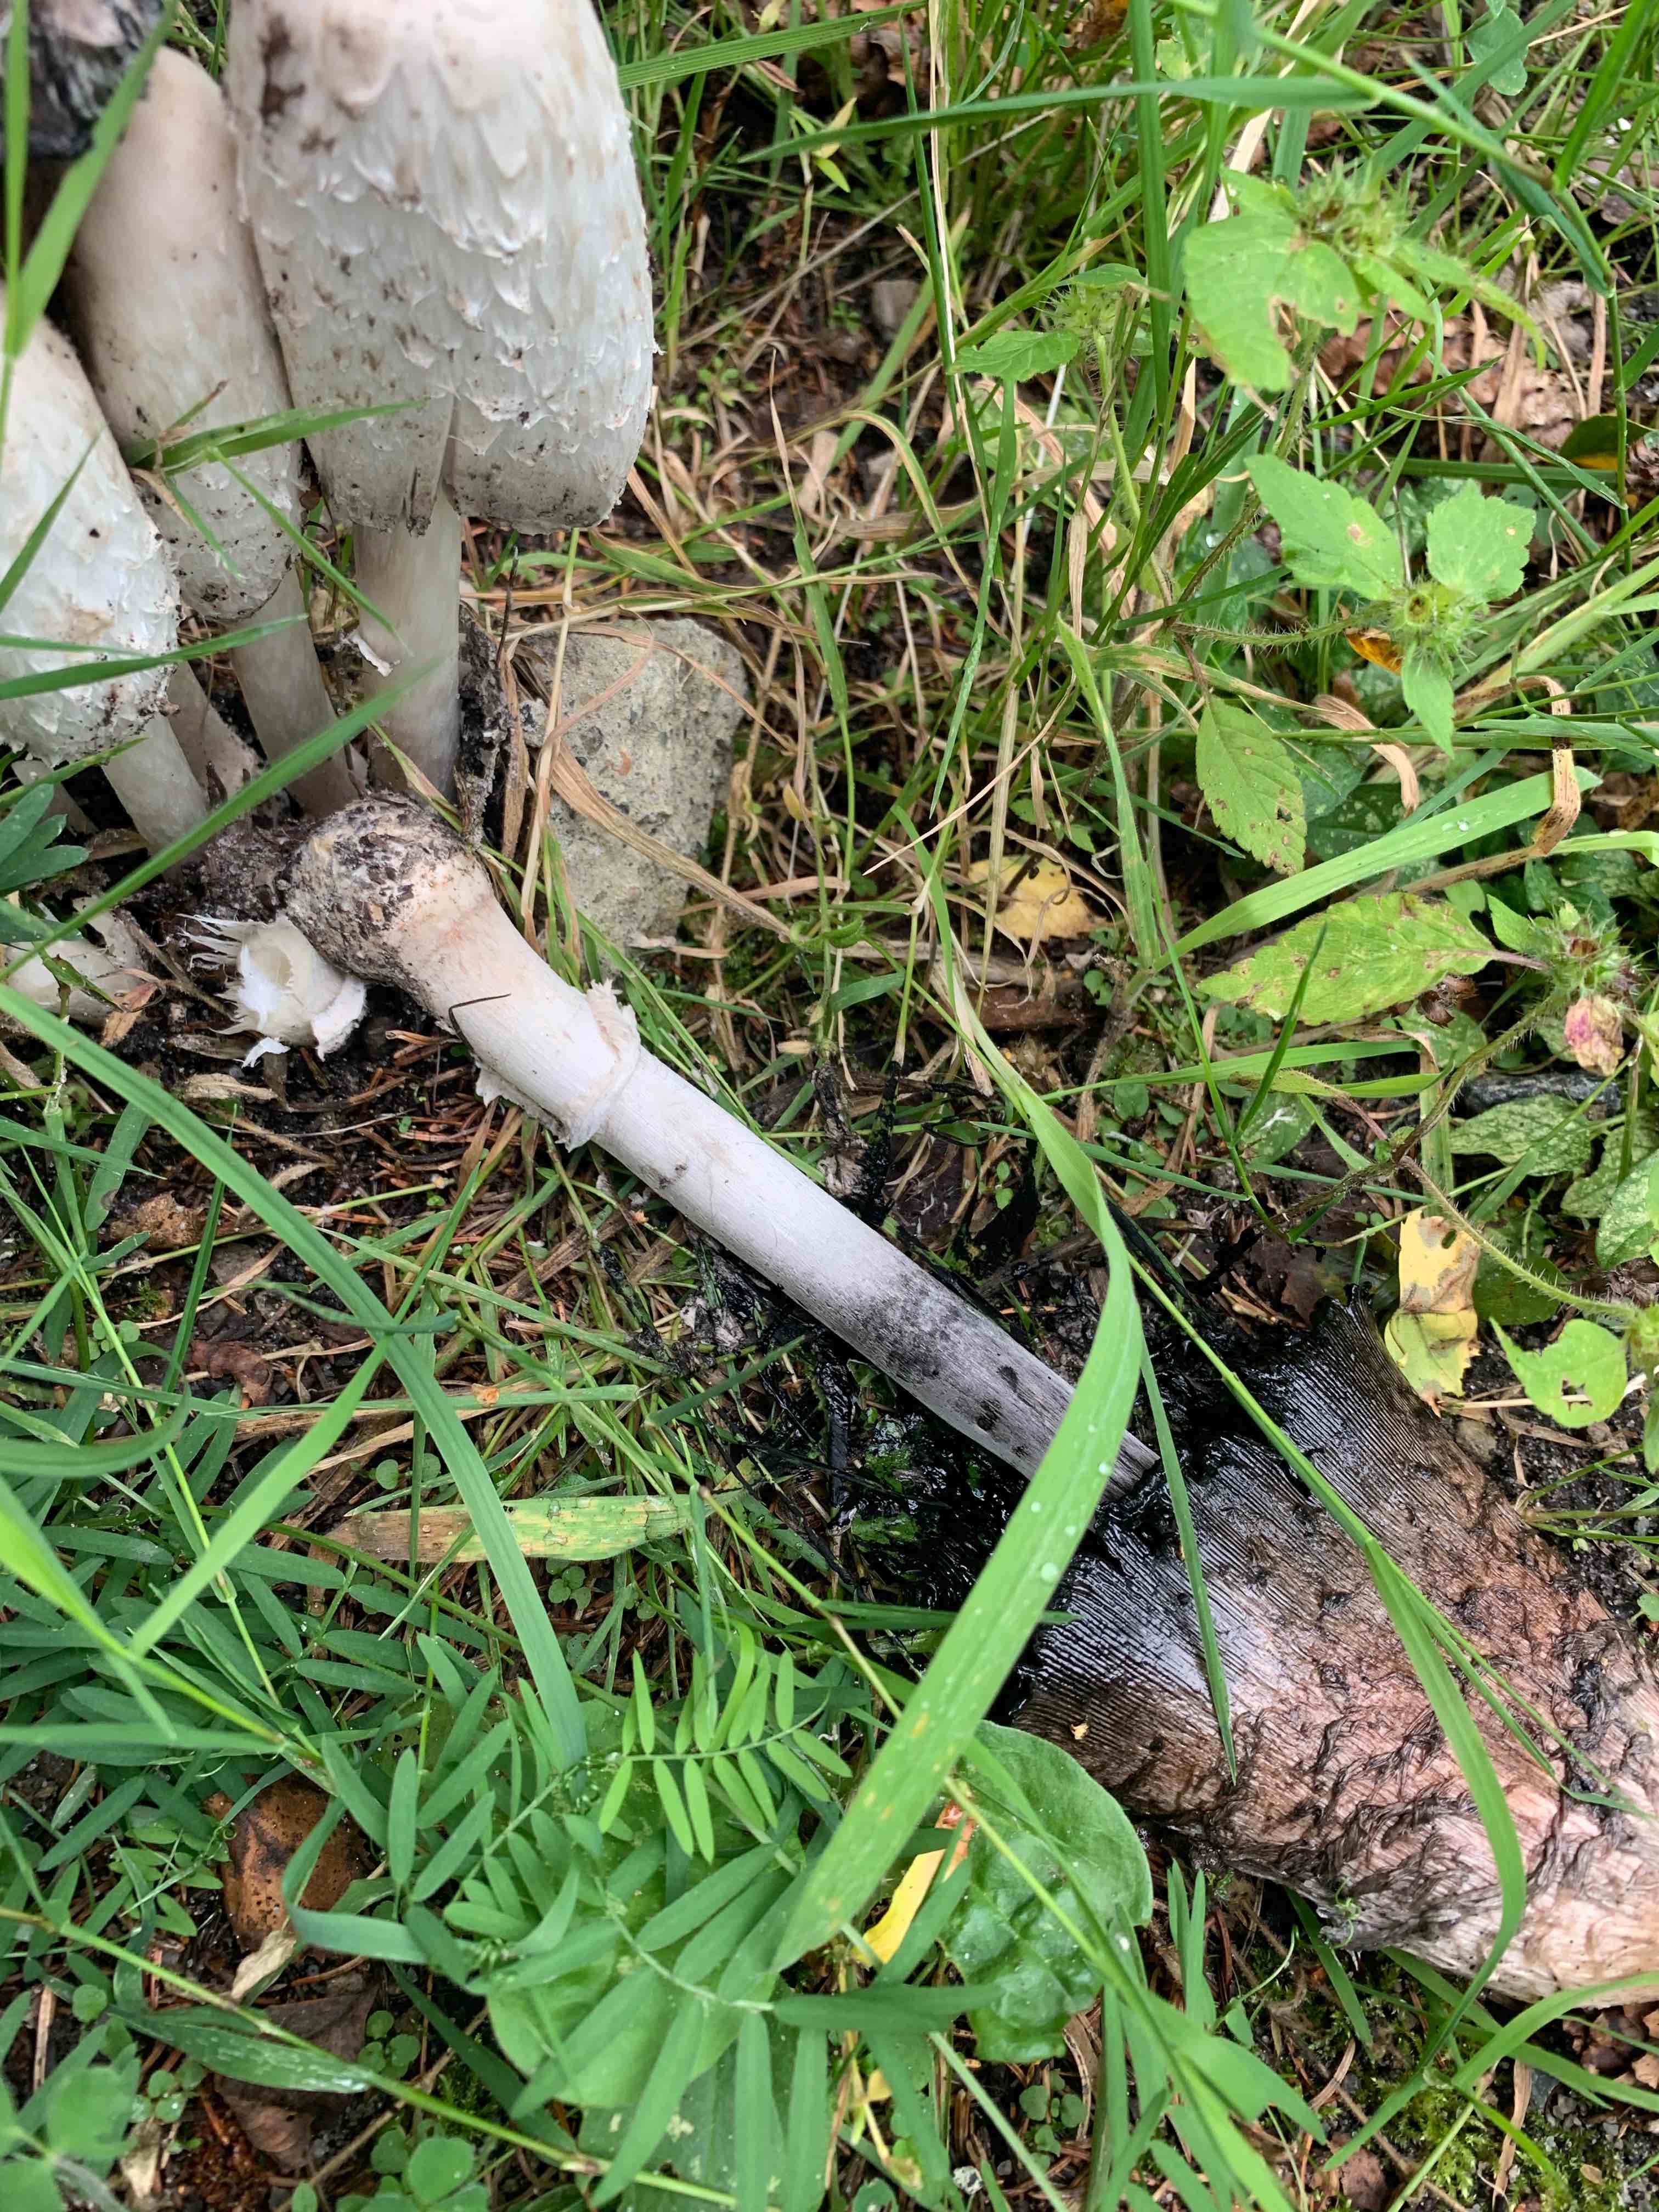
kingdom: Fungi
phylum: Basidiomycota
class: Agaricomycetes
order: Agaricales
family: Agaricaceae
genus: Coprinus
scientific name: Coprinus comatus
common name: stor parykhat
